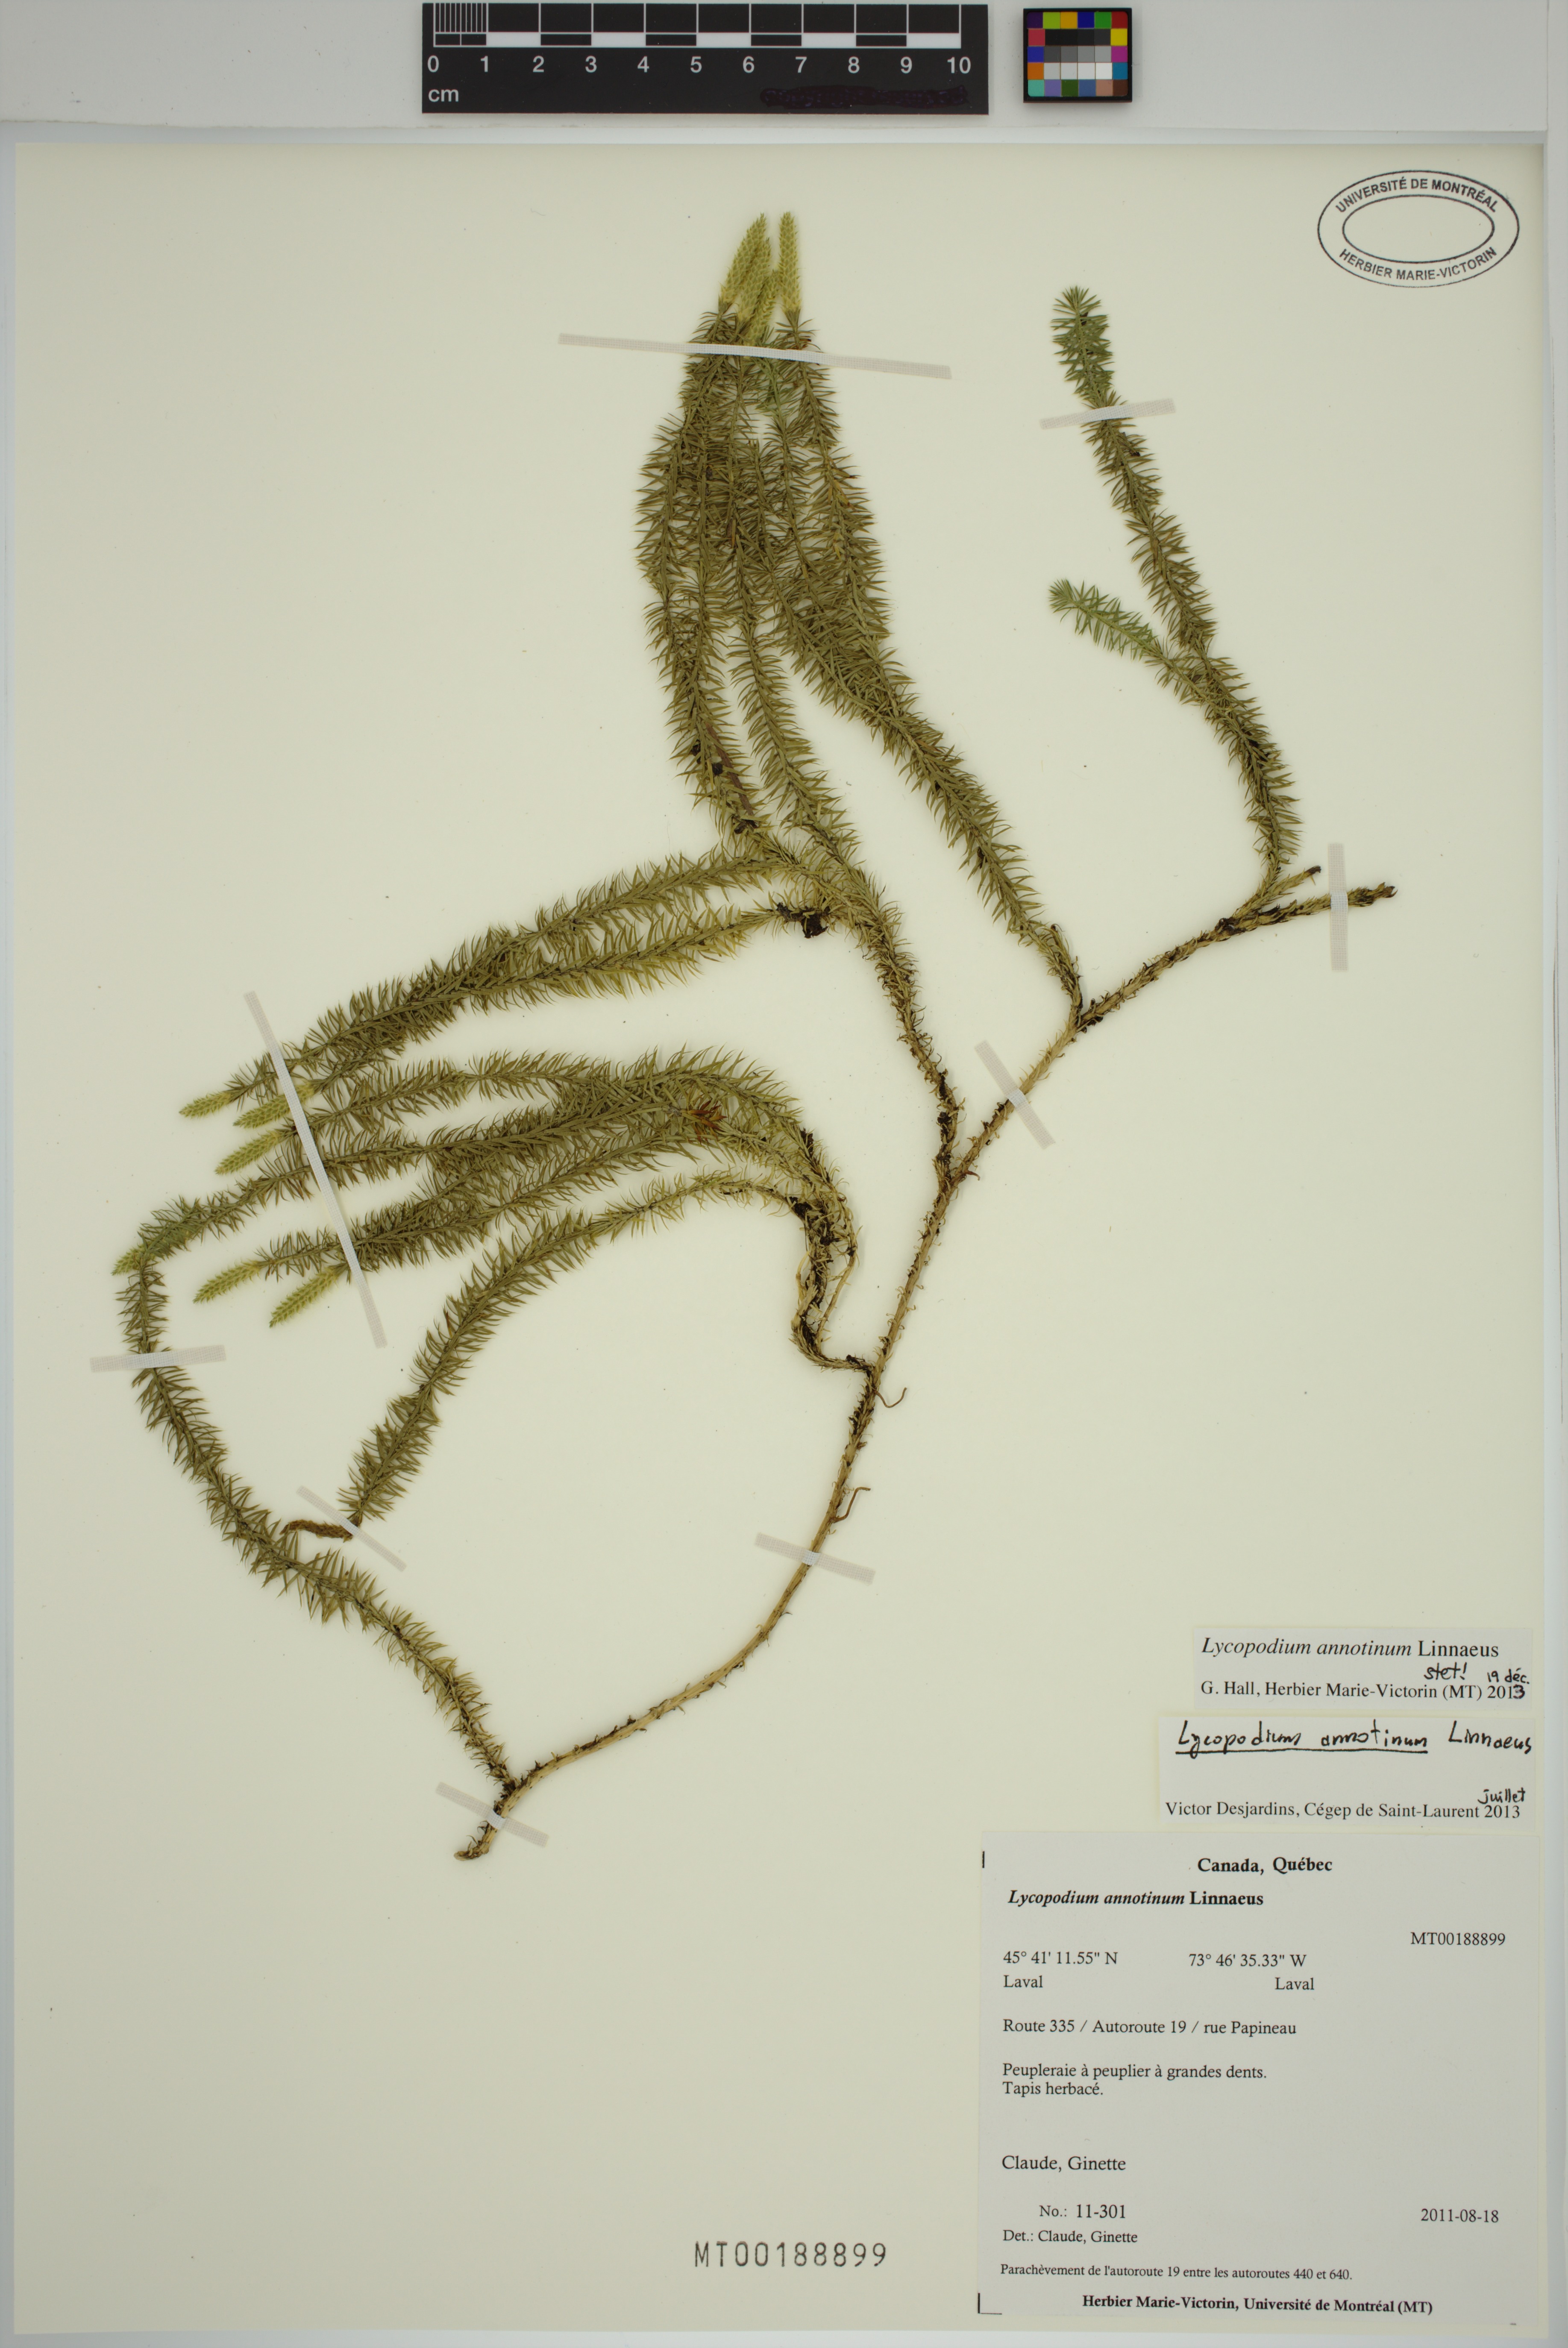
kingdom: Plantae
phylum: Tracheophyta
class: Lycopodiopsida
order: Lycopodiales
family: Lycopodiaceae
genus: Spinulum
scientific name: Spinulum annotinum
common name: Interrupted club-moss
